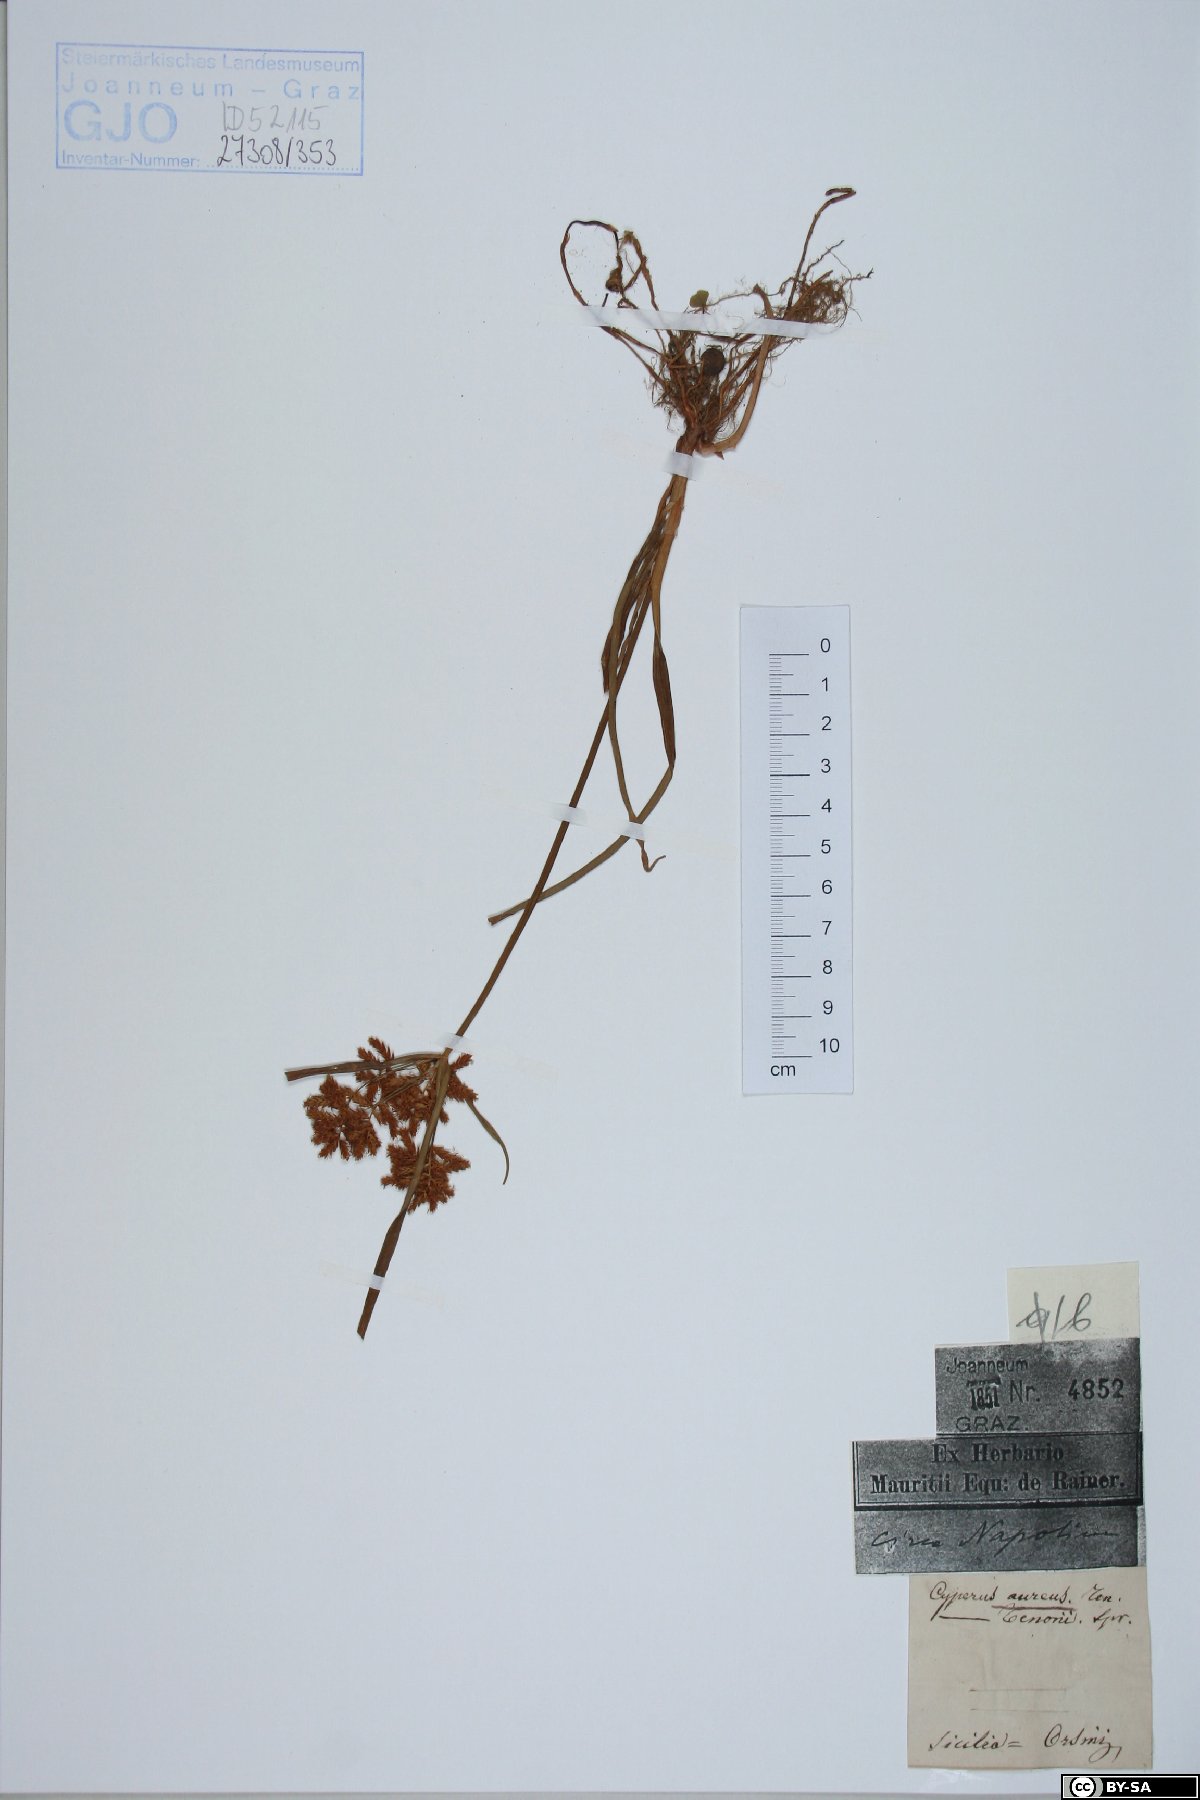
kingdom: Plantae
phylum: Tracheophyta
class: Liliopsida
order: Poales
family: Cyperaceae
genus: Cyperus
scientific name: Cyperus amabilis
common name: Foothill flat sedge
